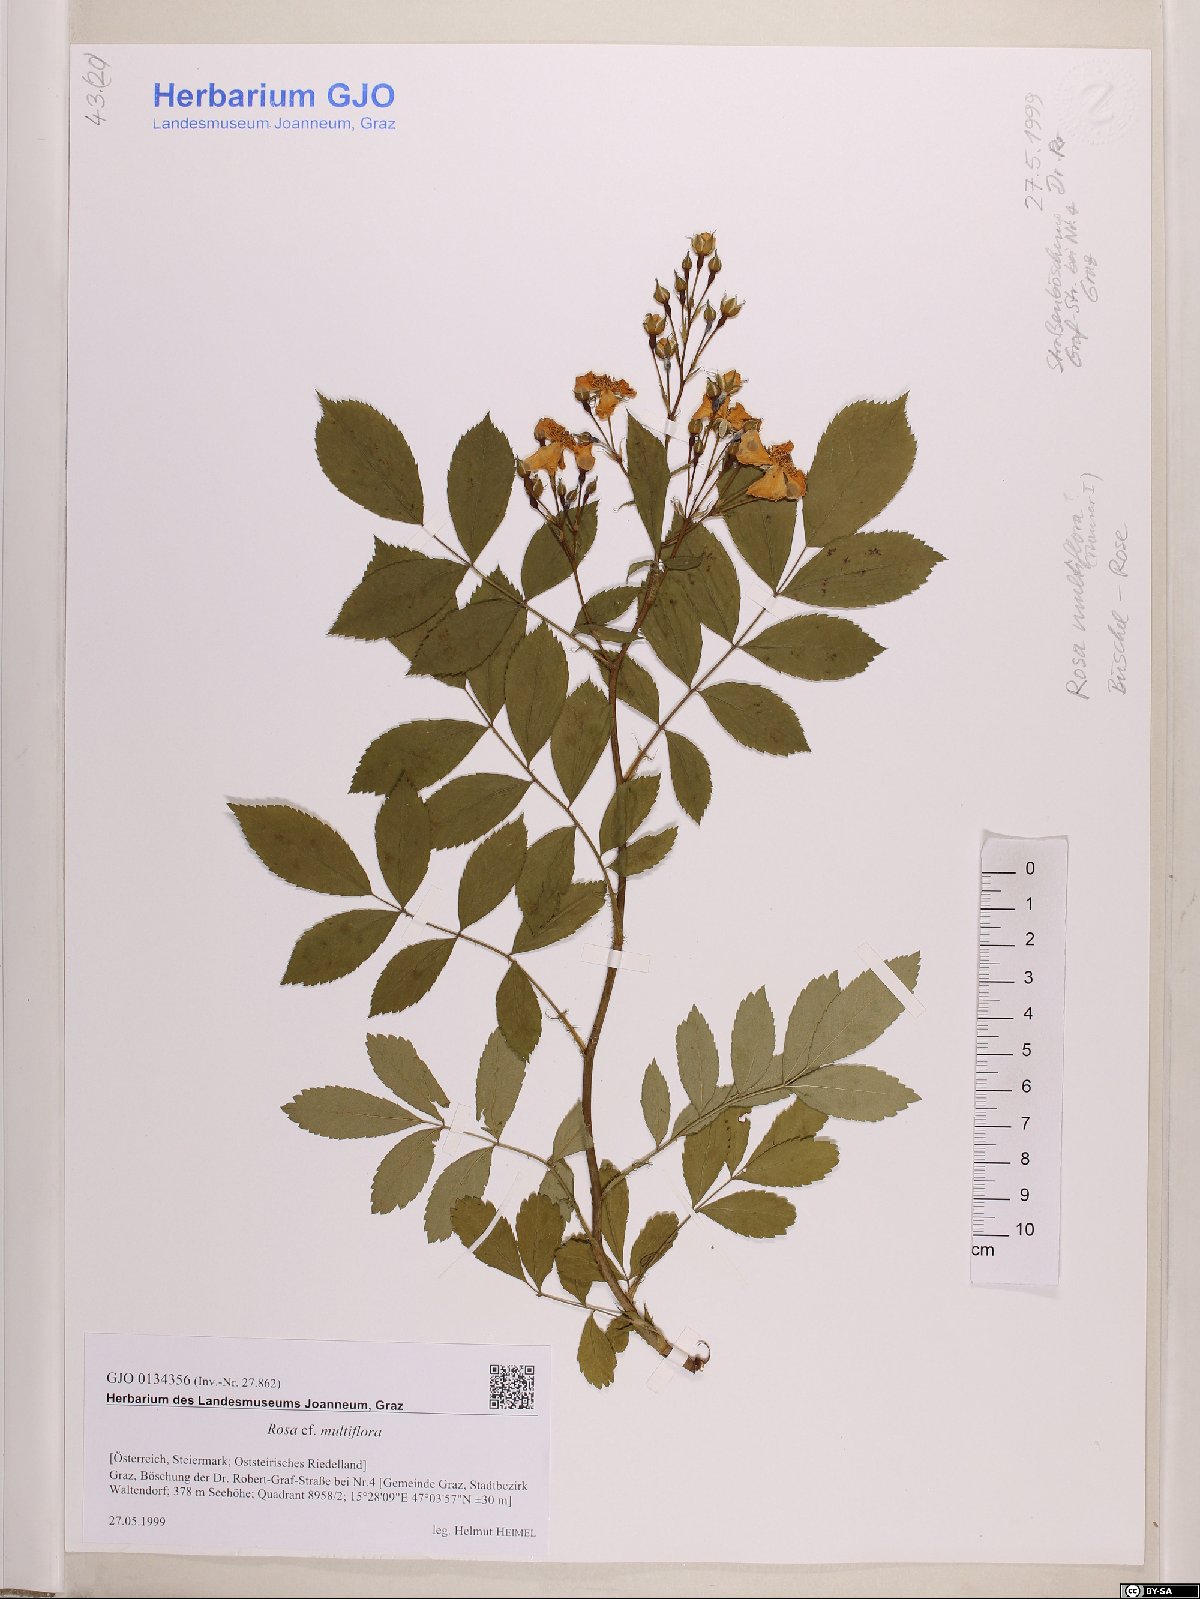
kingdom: Plantae
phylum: Tracheophyta
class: Magnoliopsida
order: Rosales
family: Rosaceae
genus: Rosa
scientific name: Rosa multiflora
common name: Multiflora rose
